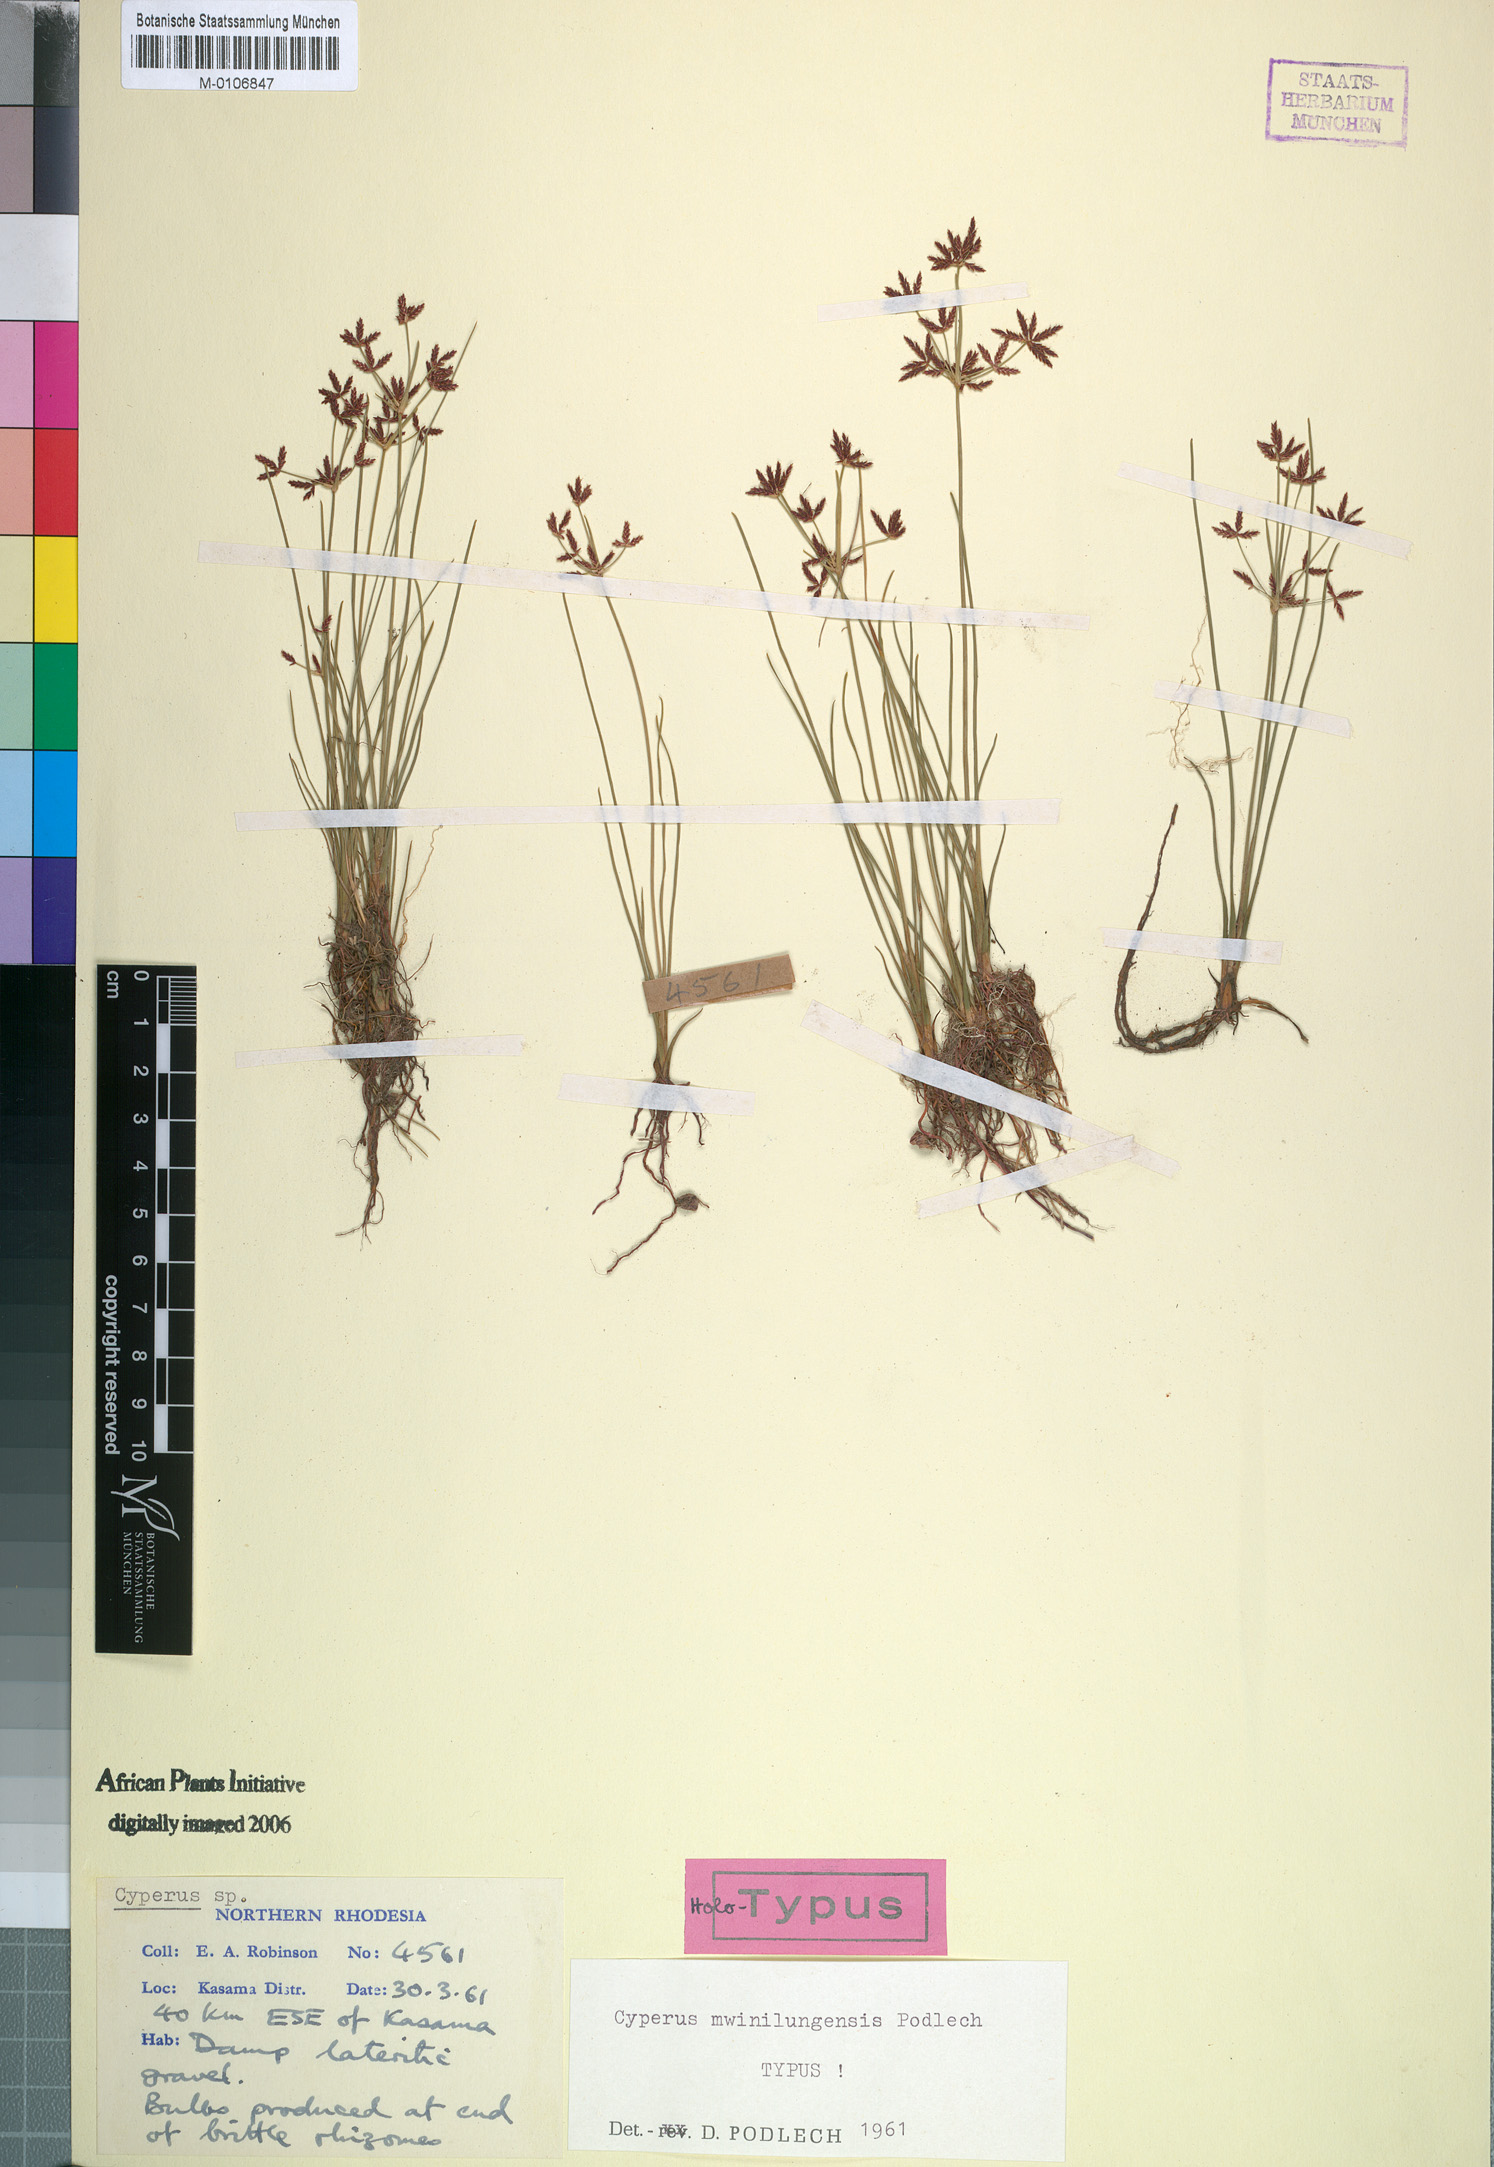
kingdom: Plantae
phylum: Tracheophyta
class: Liliopsida
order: Poales
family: Cyperaceae
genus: Cyperus
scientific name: Cyperus mwinilungensis
